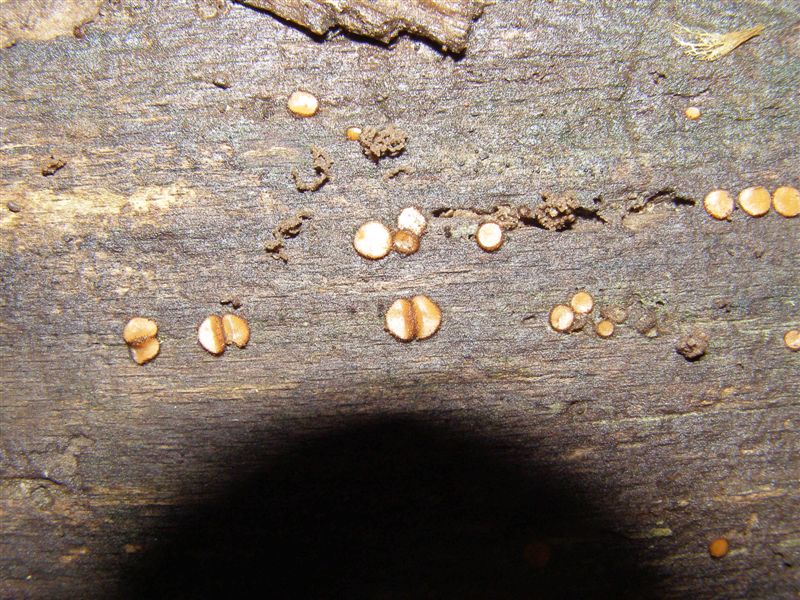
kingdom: Fungi
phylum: Ascomycota
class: Pezizomycetes
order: Pezizales
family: Pyronemataceae
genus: Scutellinia
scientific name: Scutellinia setosa
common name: pindsvine-skjoldbæger
